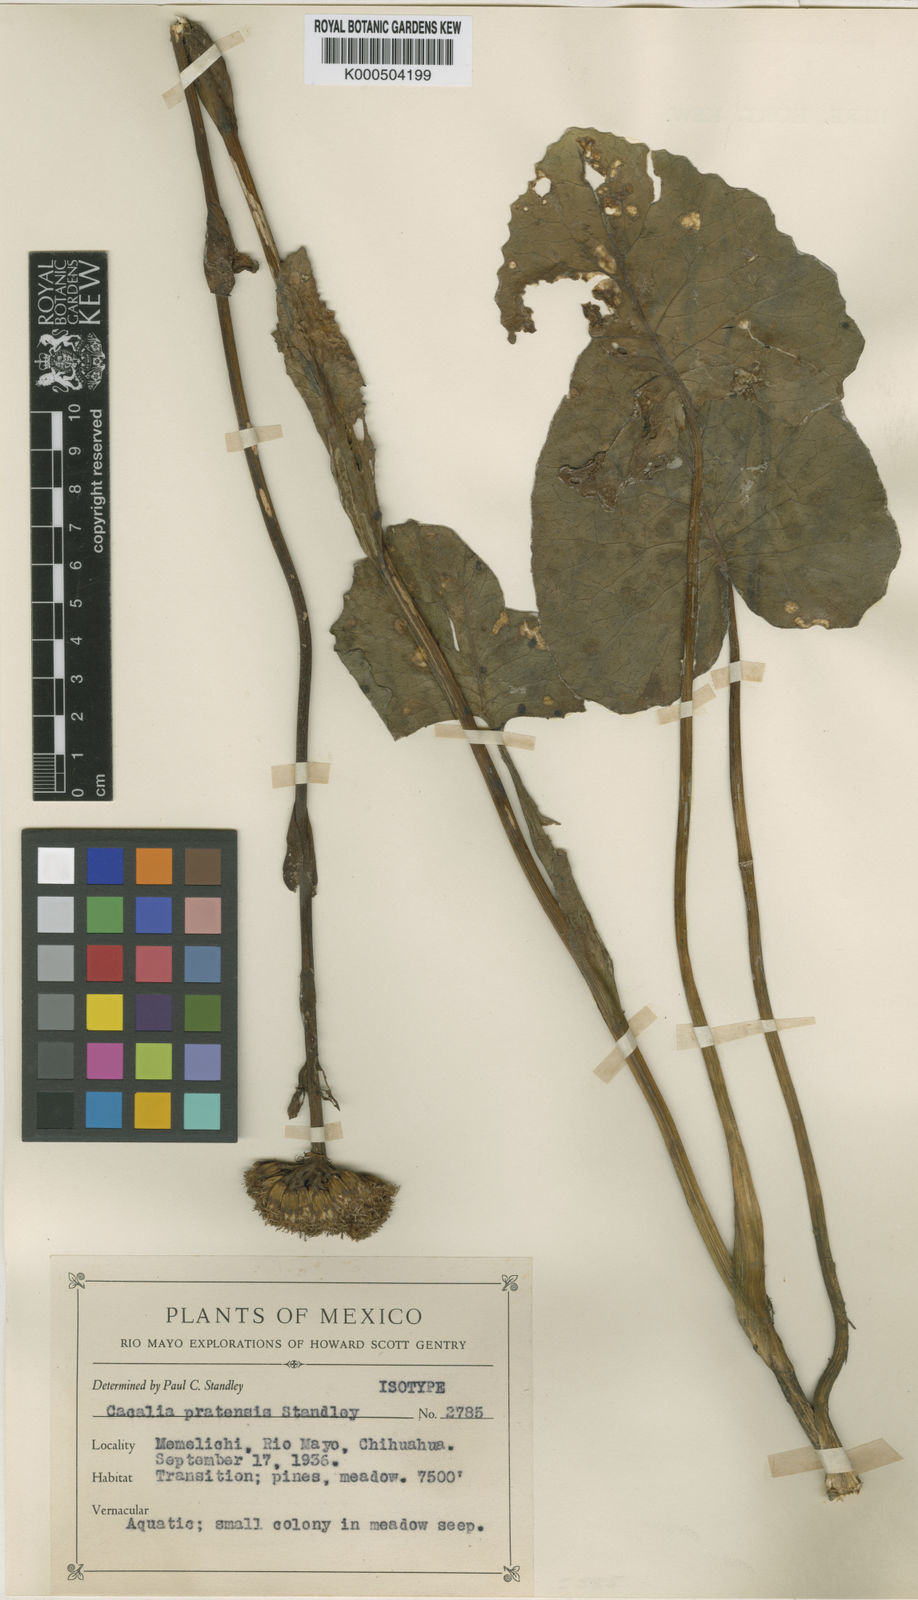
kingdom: Plantae
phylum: Tracheophyta
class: Magnoliopsida
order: Asterales
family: Asteraceae
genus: Psacalium
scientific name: Psacalium globosum
